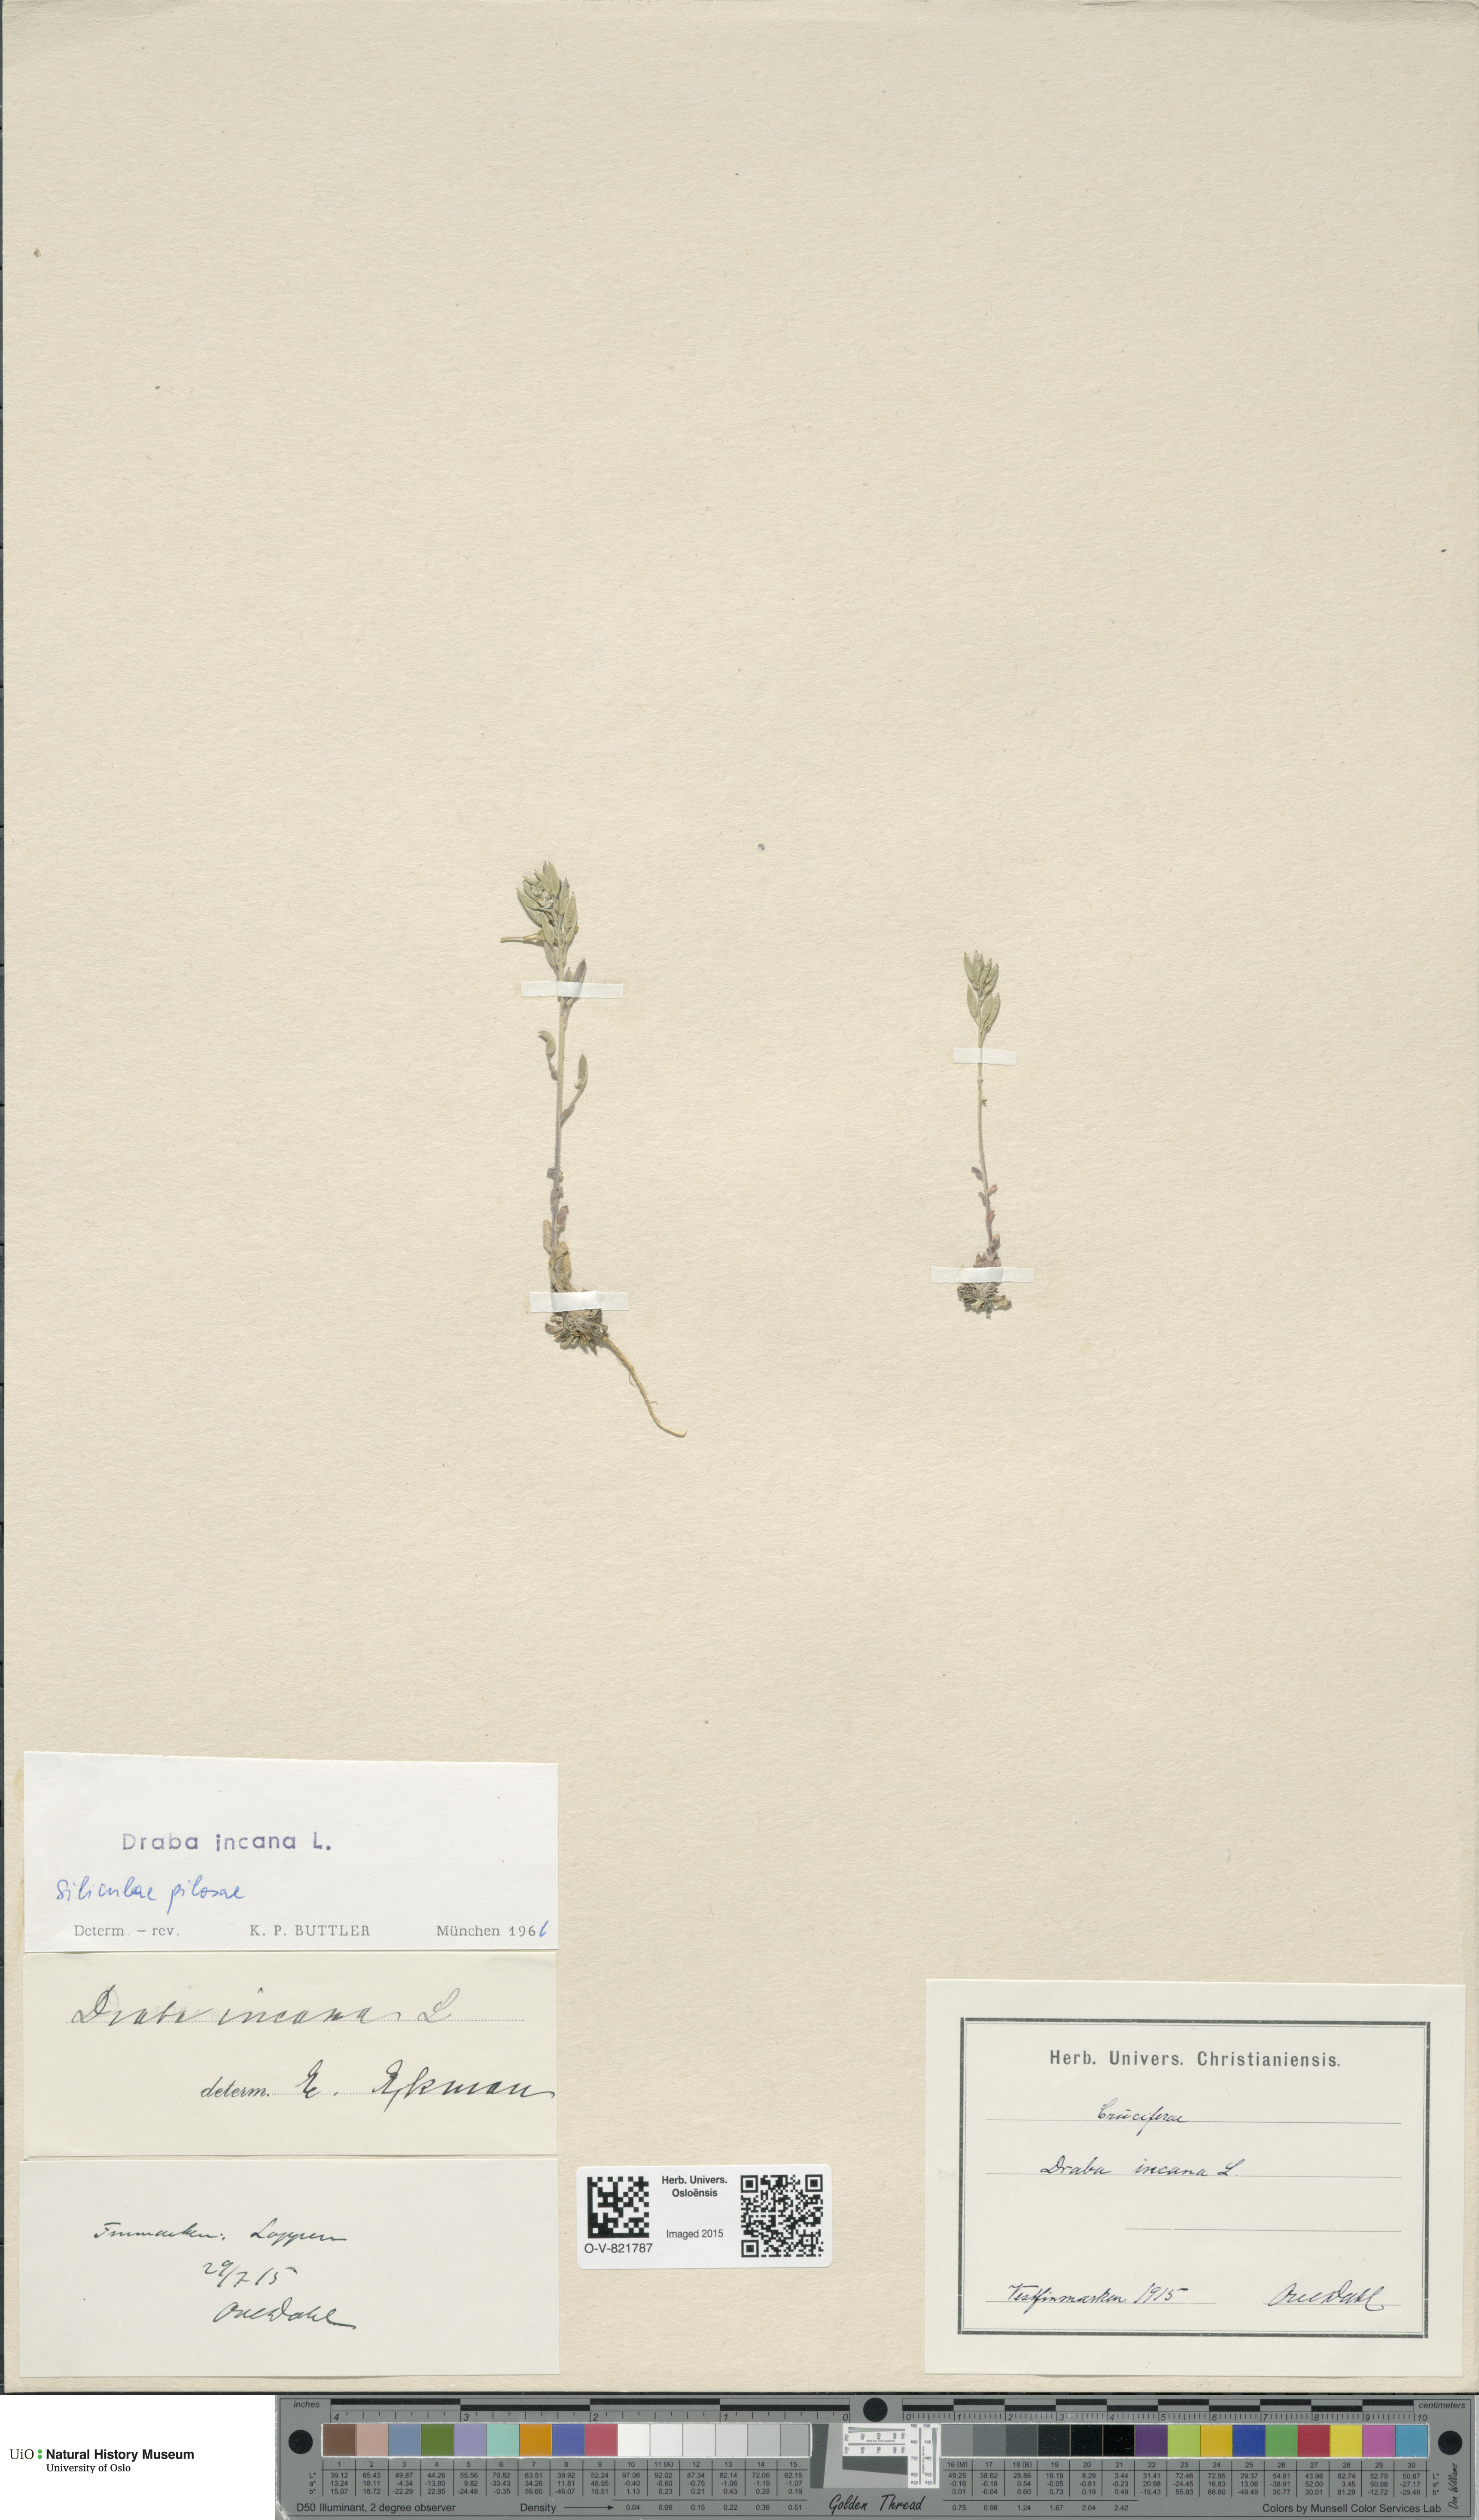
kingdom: Plantae
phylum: Tracheophyta
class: Magnoliopsida
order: Brassicales
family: Brassicaceae
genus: Draba
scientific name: Draba incana
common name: Hoary whitlow-grass
